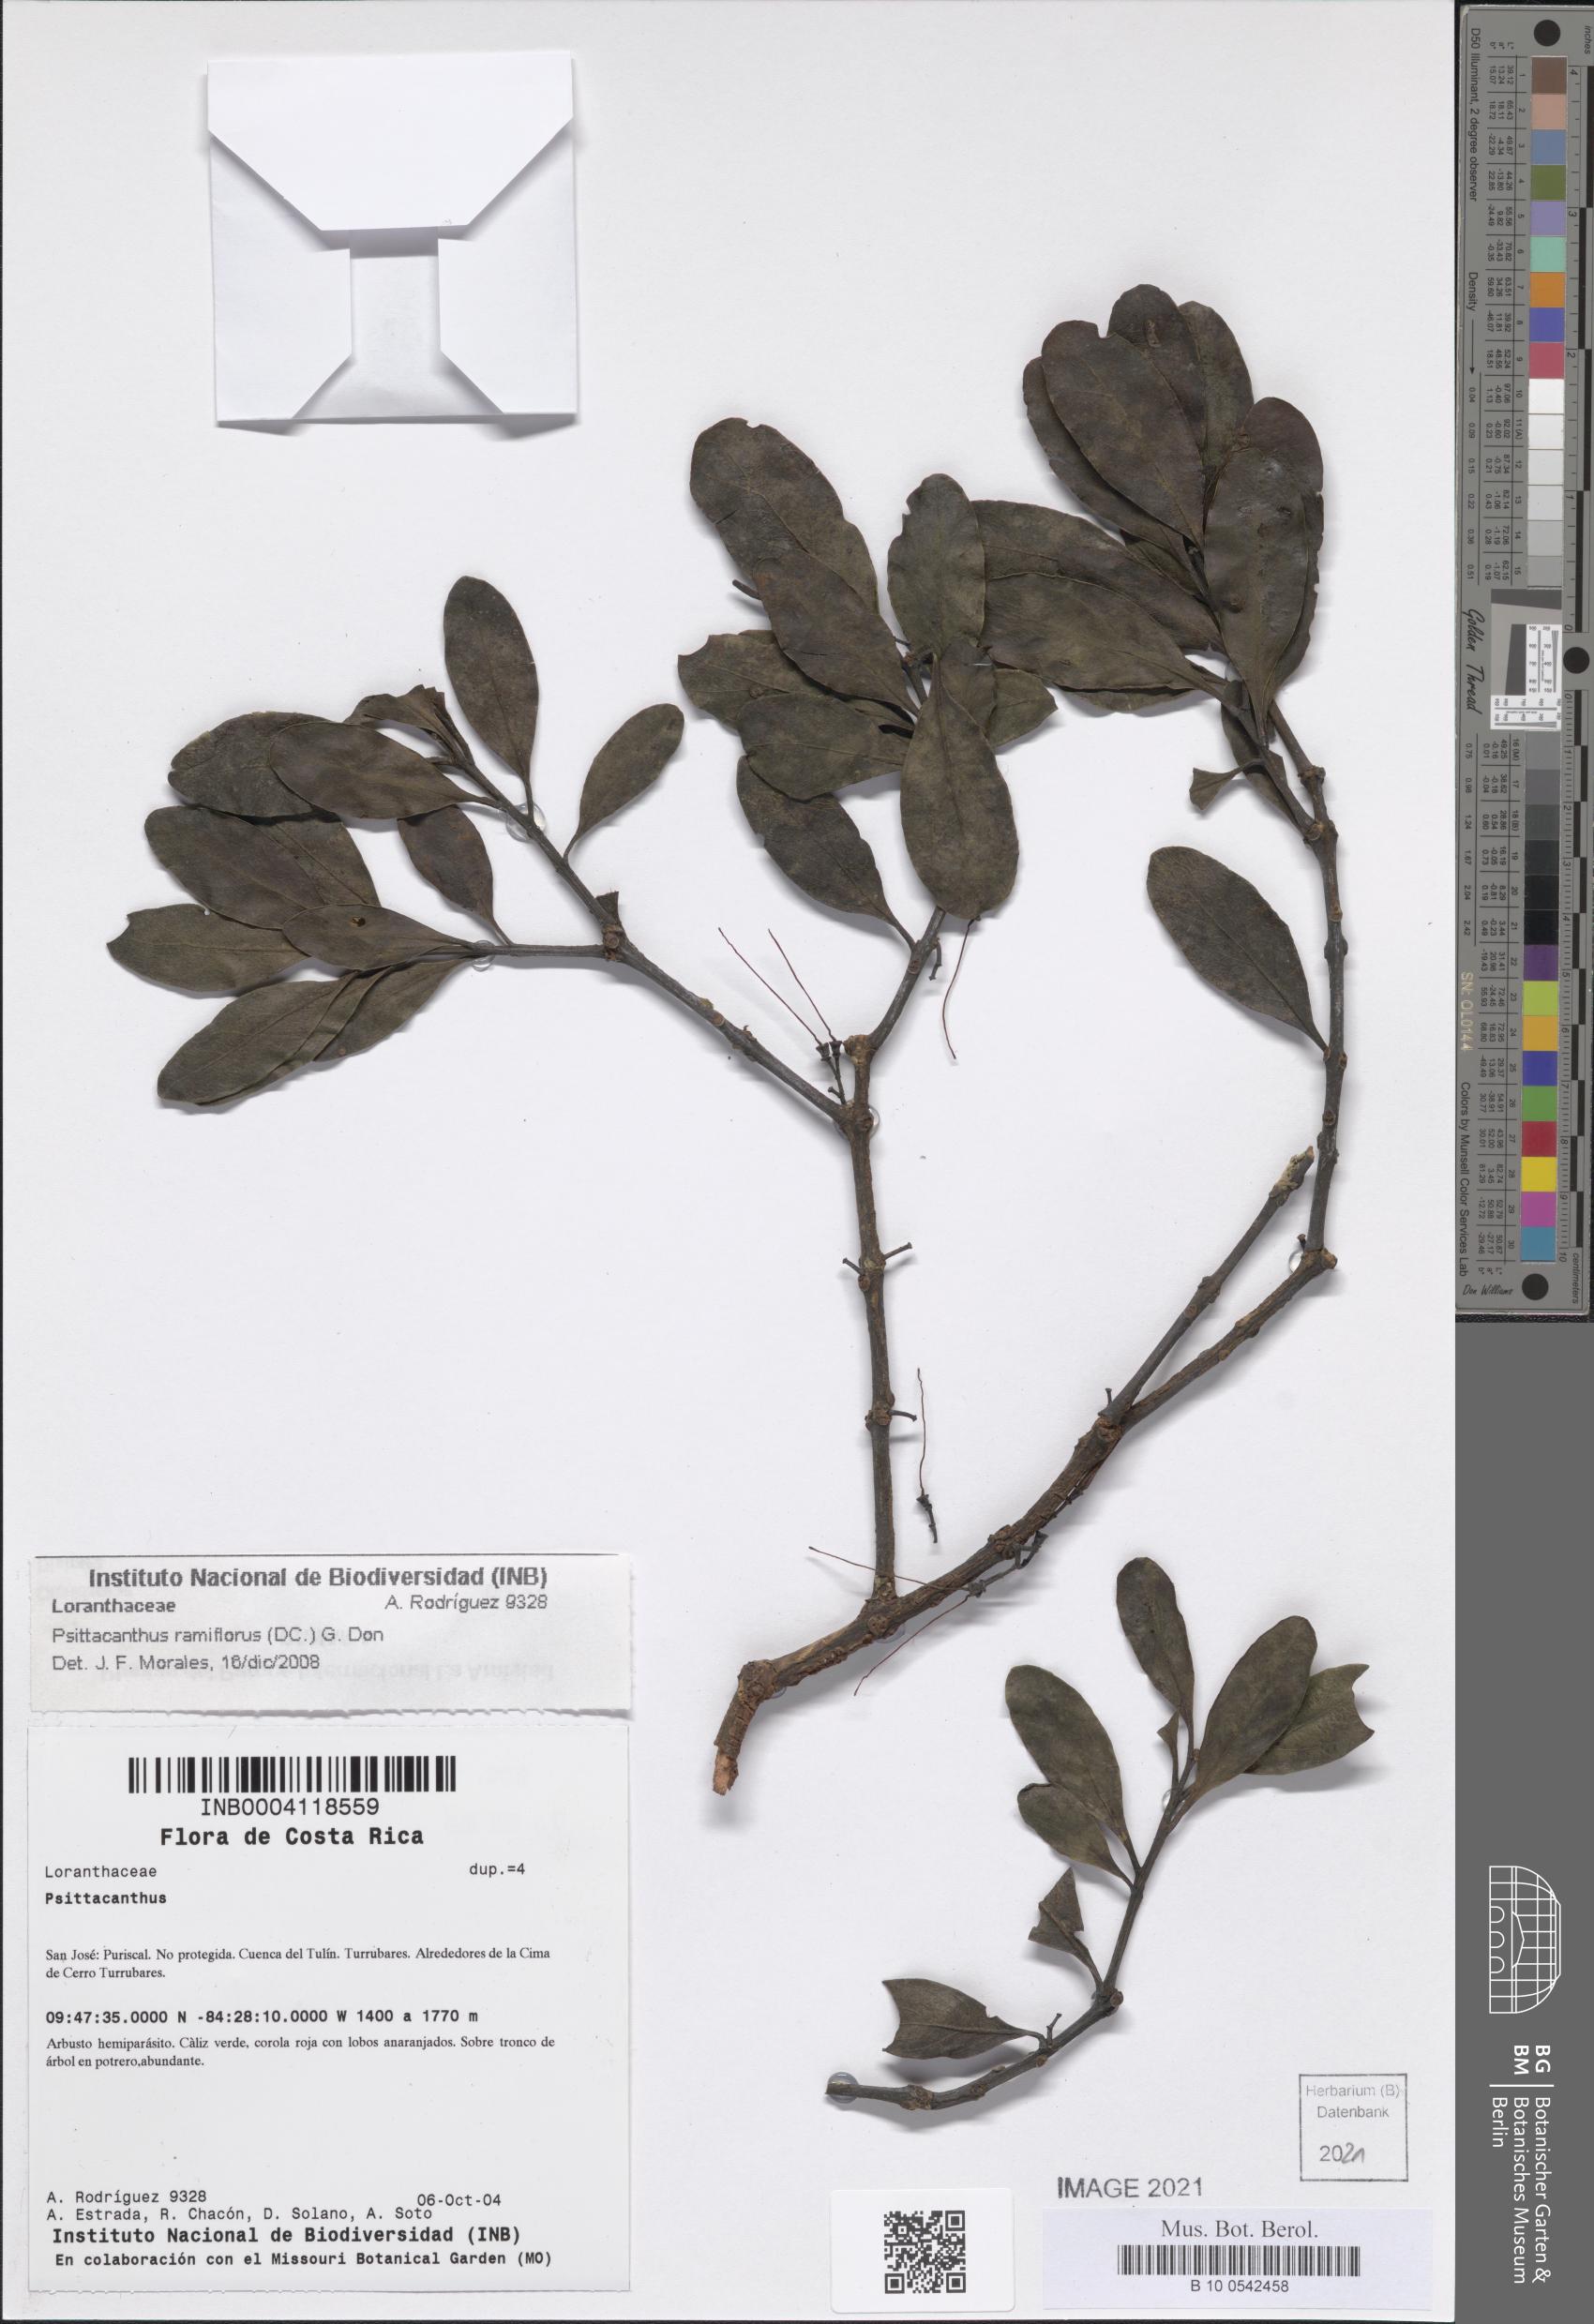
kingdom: Plantae
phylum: Tracheophyta
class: Magnoliopsida
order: Santalales
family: Loranthaceae
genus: Psittacanthus
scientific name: Psittacanthus ramiflorus
